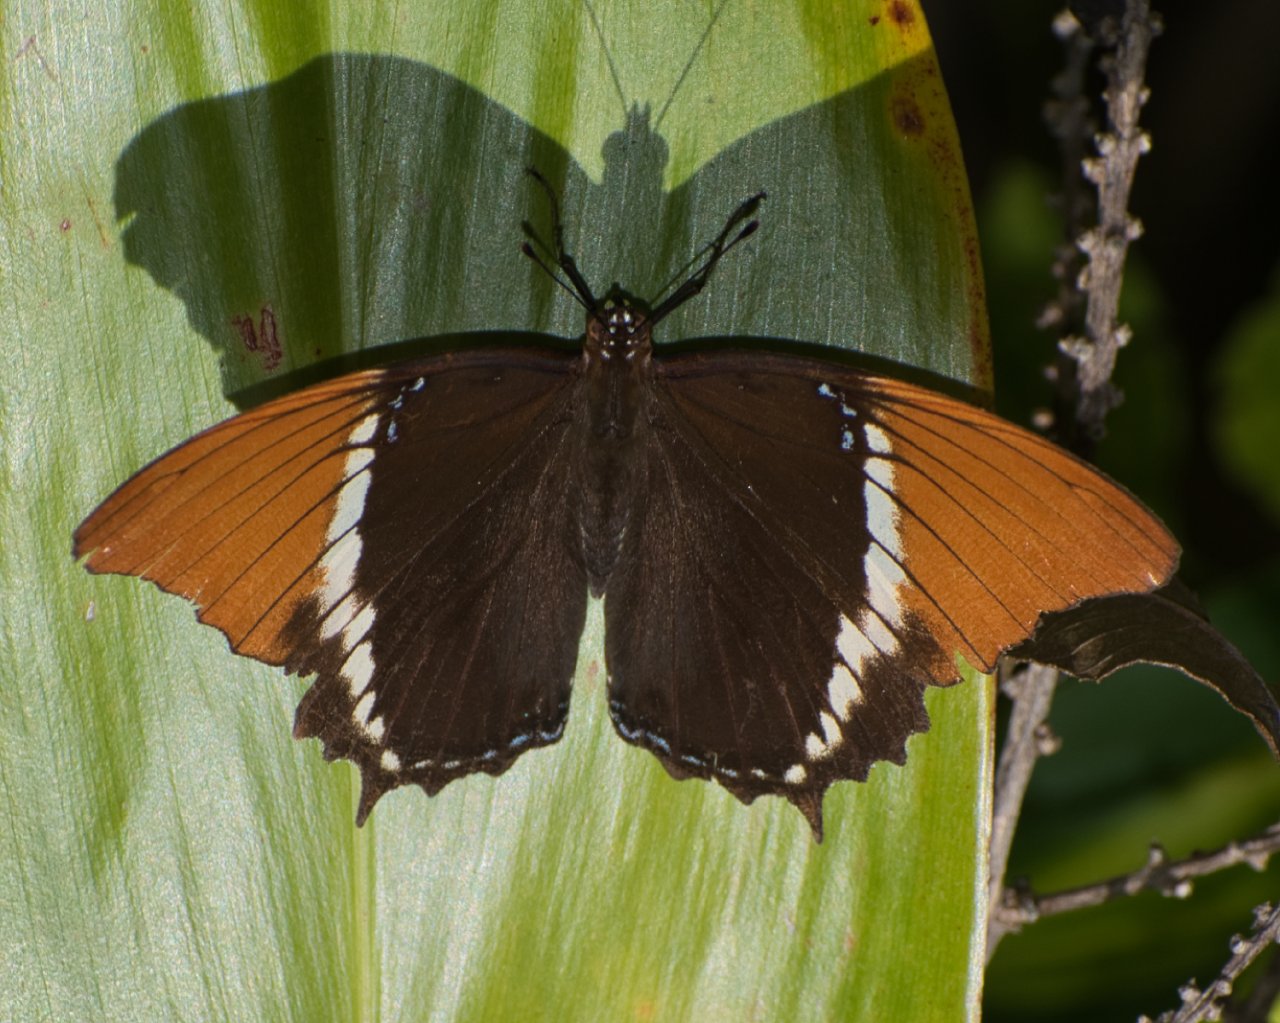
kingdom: Animalia
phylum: Arthropoda
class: Insecta
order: Lepidoptera
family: Nymphalidae
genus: Siproeta
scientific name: Siproeta epaphus
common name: Rusty-tipped Page
